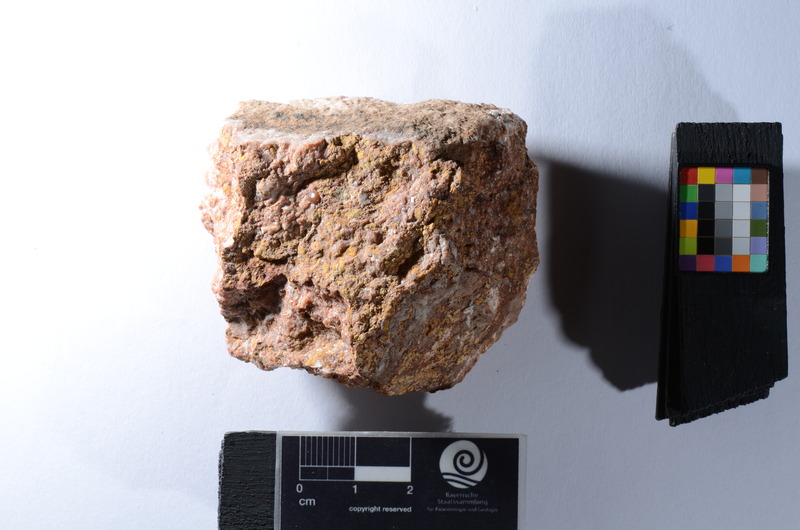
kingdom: Animalia
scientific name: Animalia
